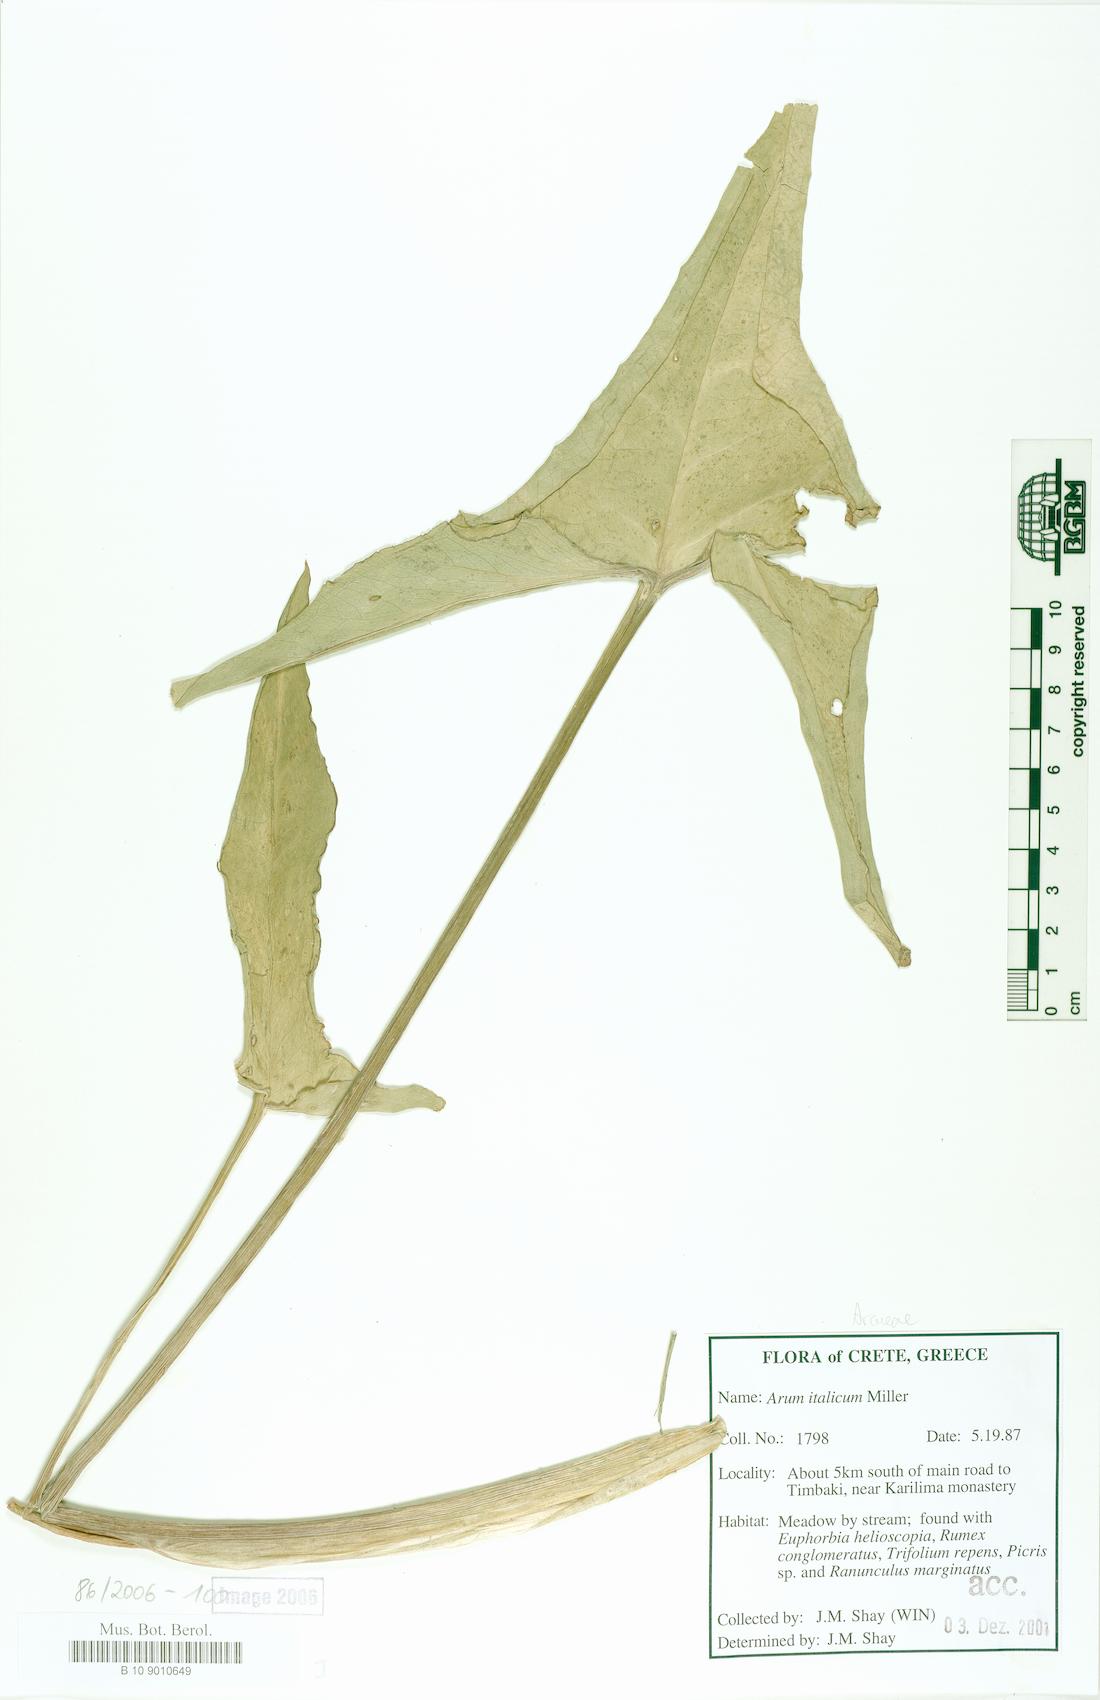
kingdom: Plantae
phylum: Tracheophyta
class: Liliopsida
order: Alismatales
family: Araceae
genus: Arum
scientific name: Arum italicum
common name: Italian lords-and-ladies
